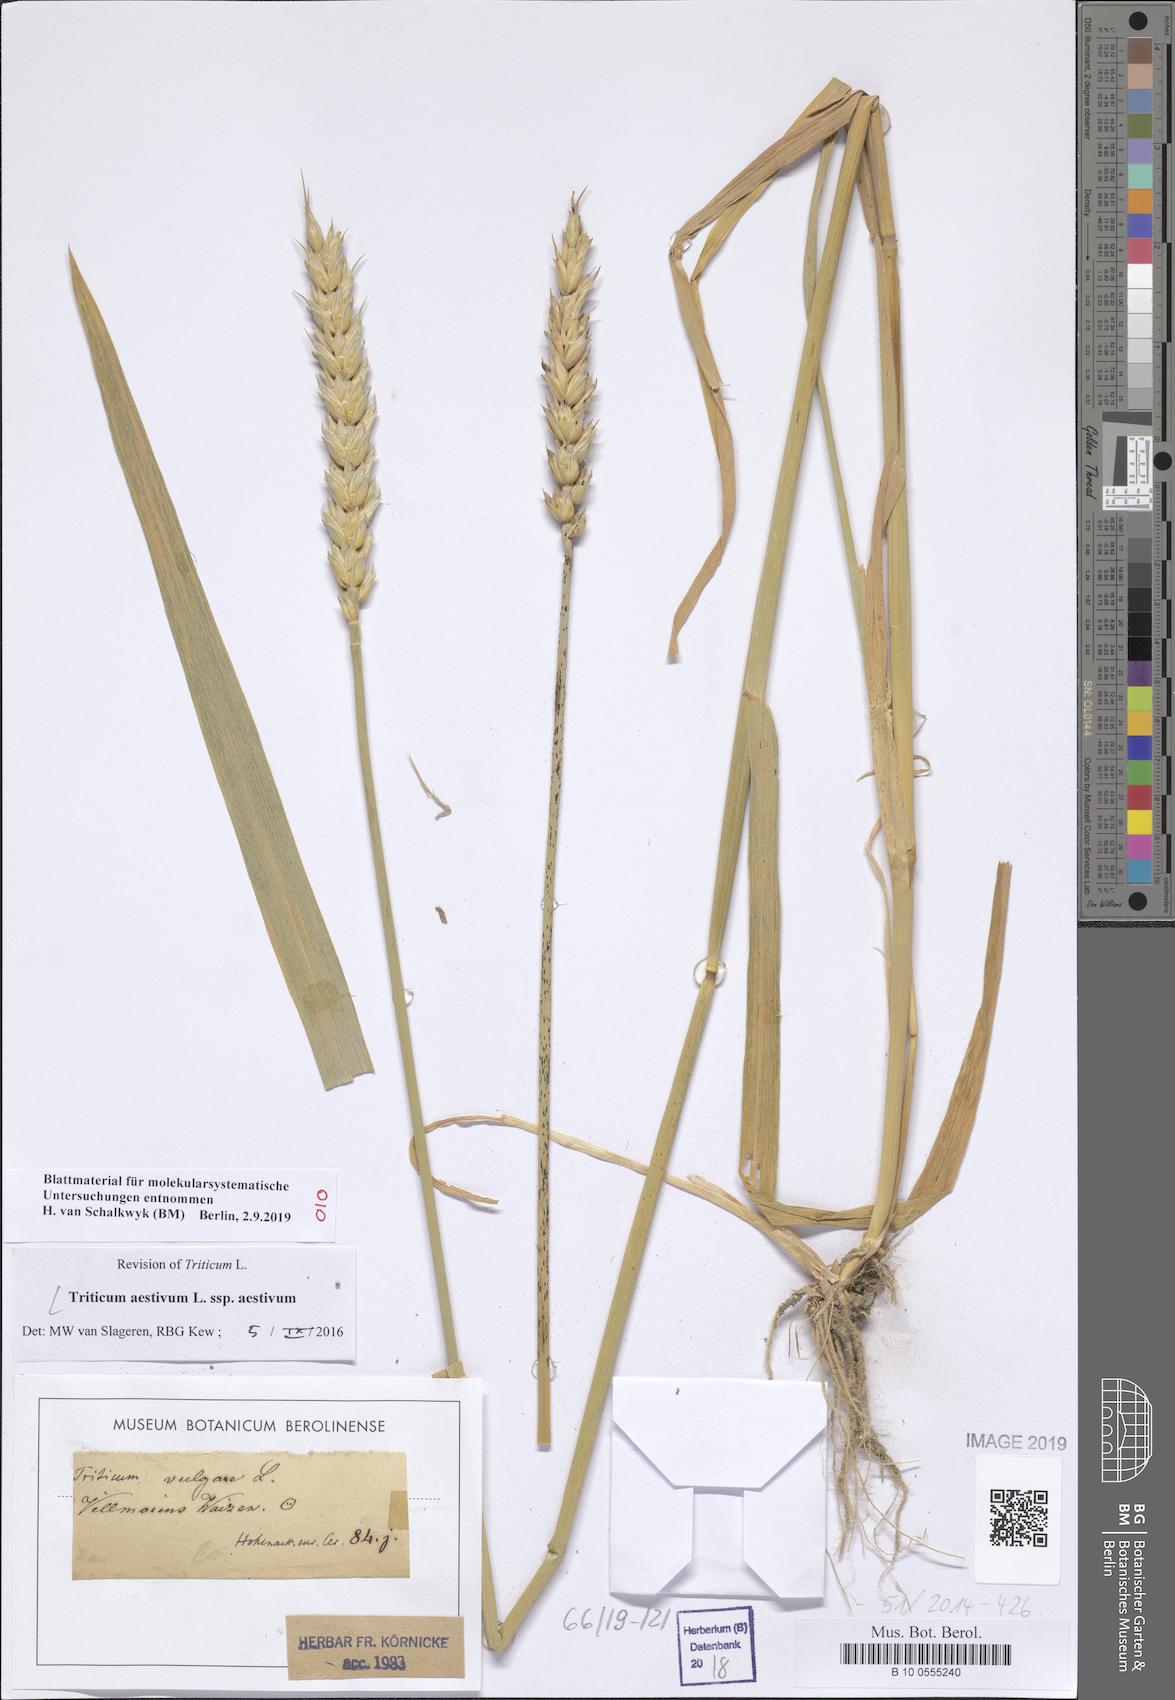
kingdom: Plantae
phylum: Tracheophyta
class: Liliopsida
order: Poales
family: Poaceae
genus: Triticum
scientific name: Triticum aestivum
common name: Common wheat
